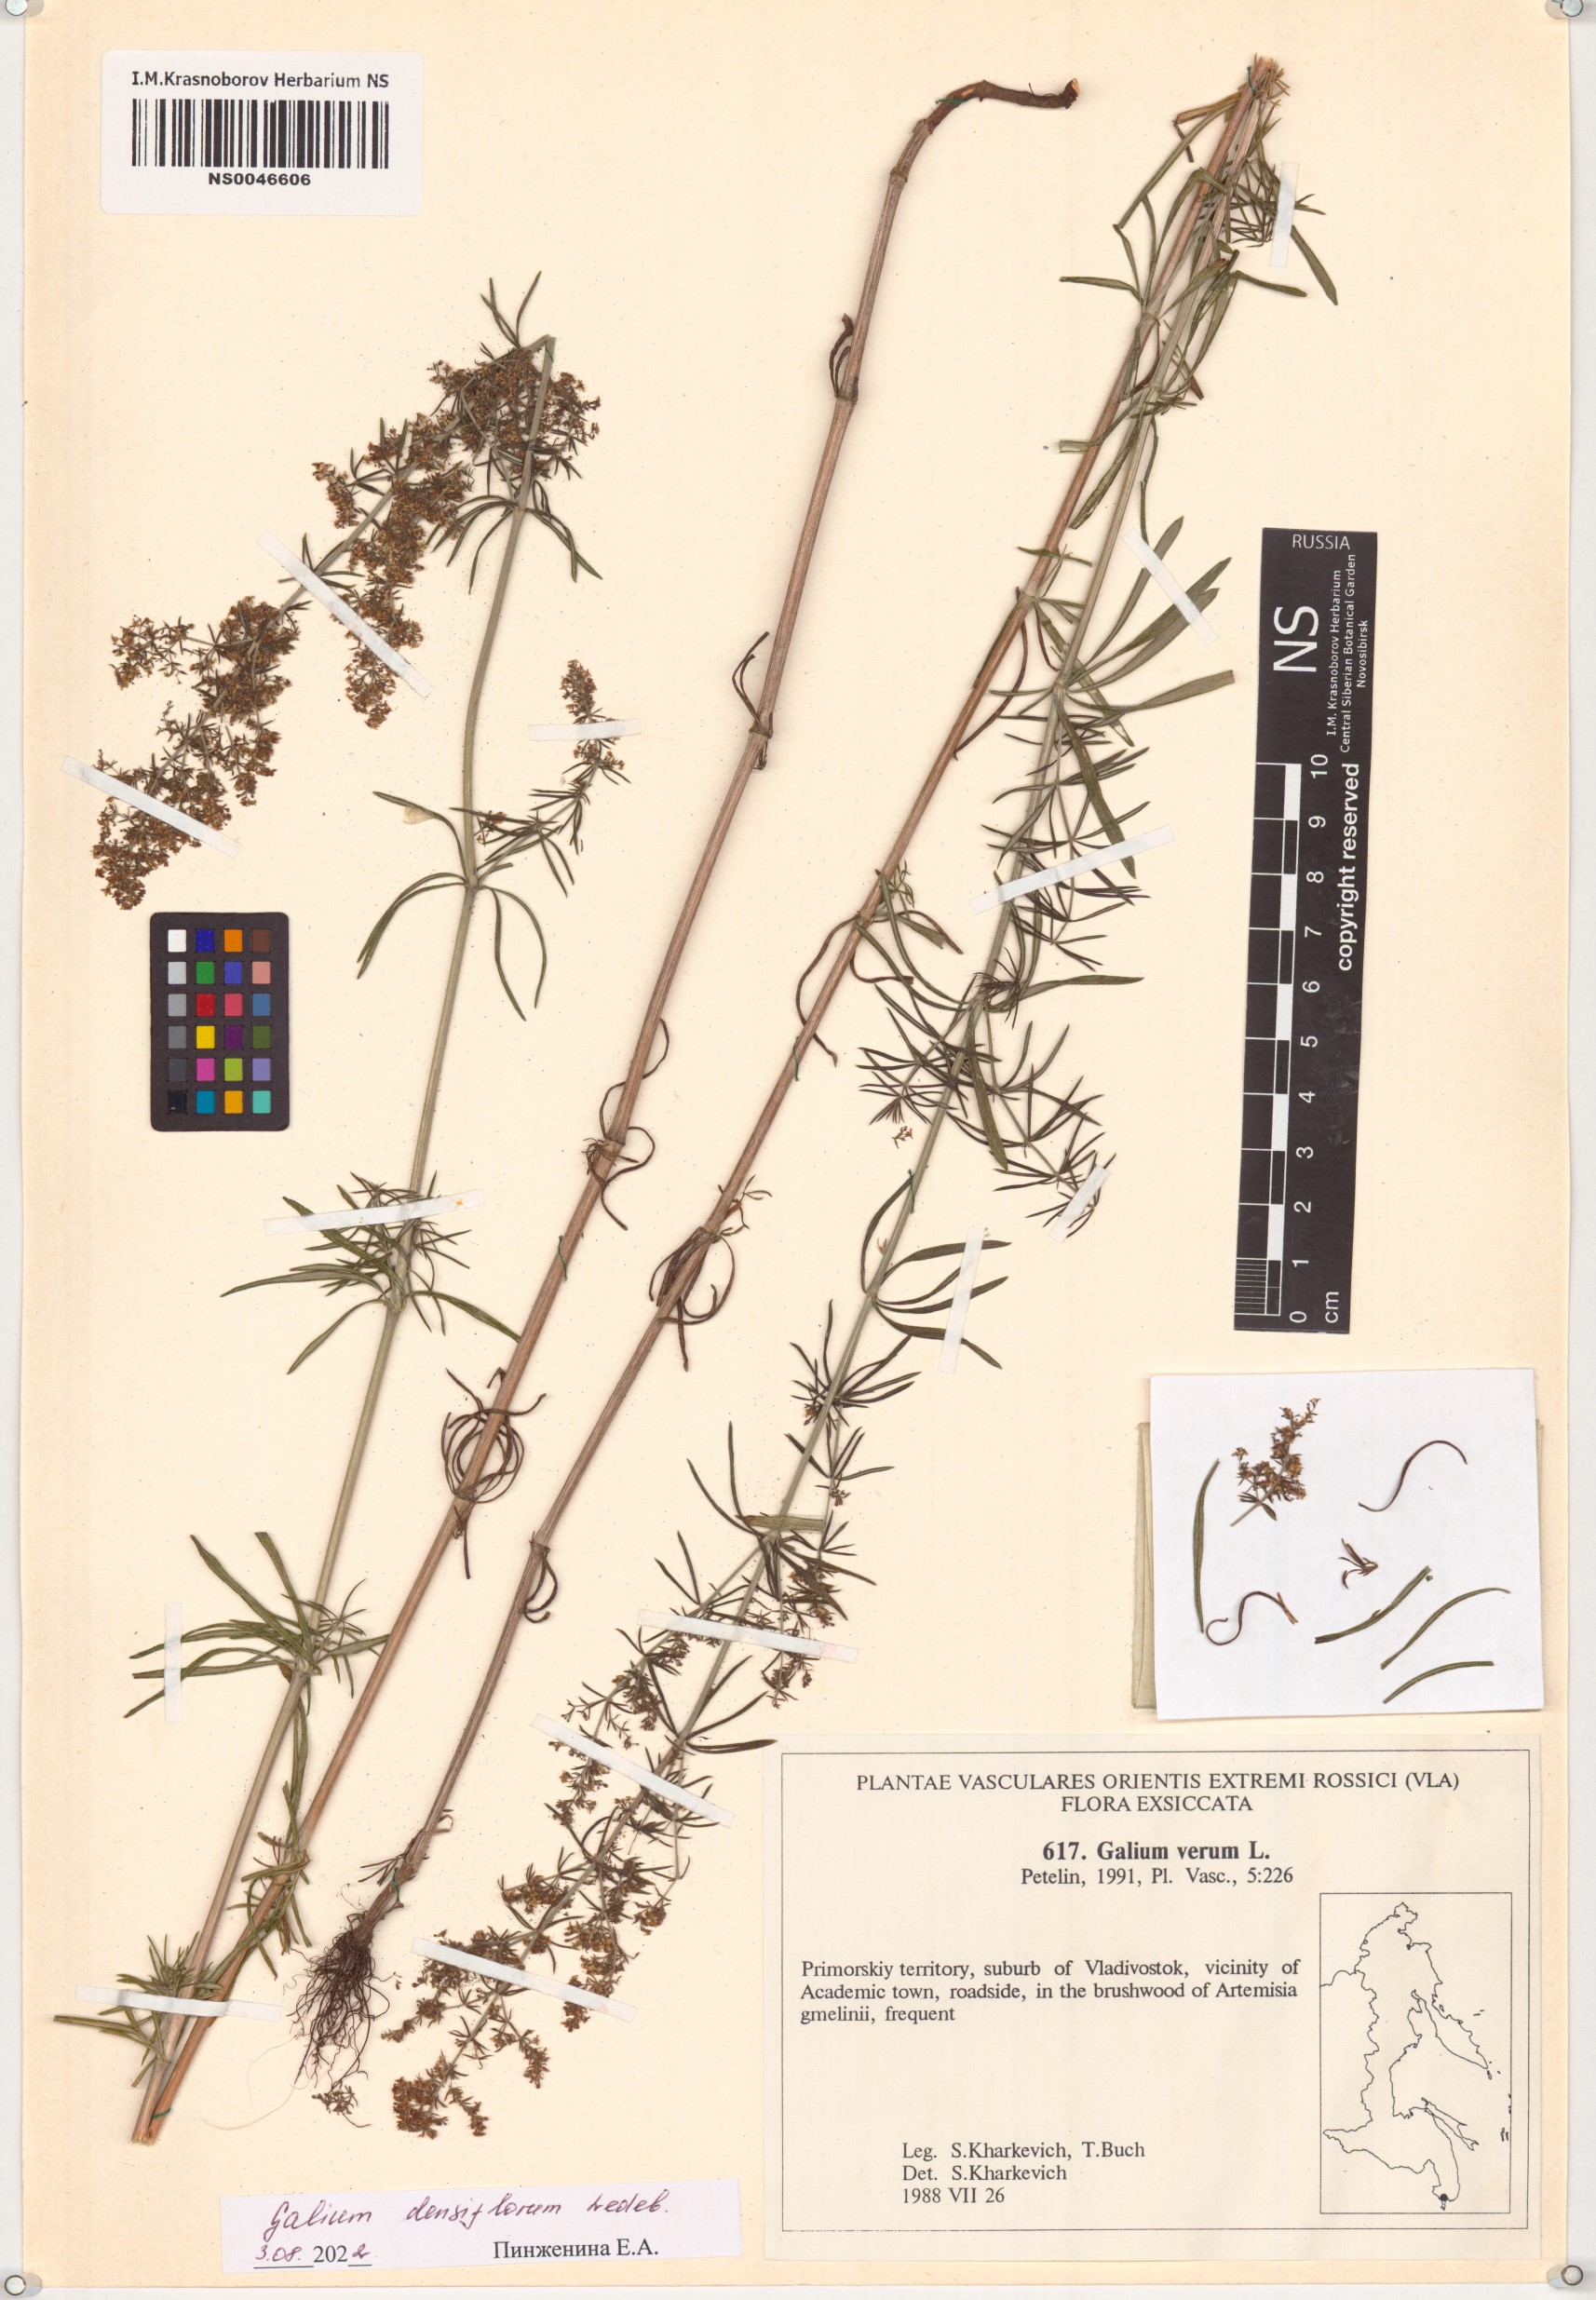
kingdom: Plantae
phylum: Tracheophyta
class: Magnoliopsida
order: Gentianales
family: Rubiaceae
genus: Galium
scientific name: Galium densiflorum
